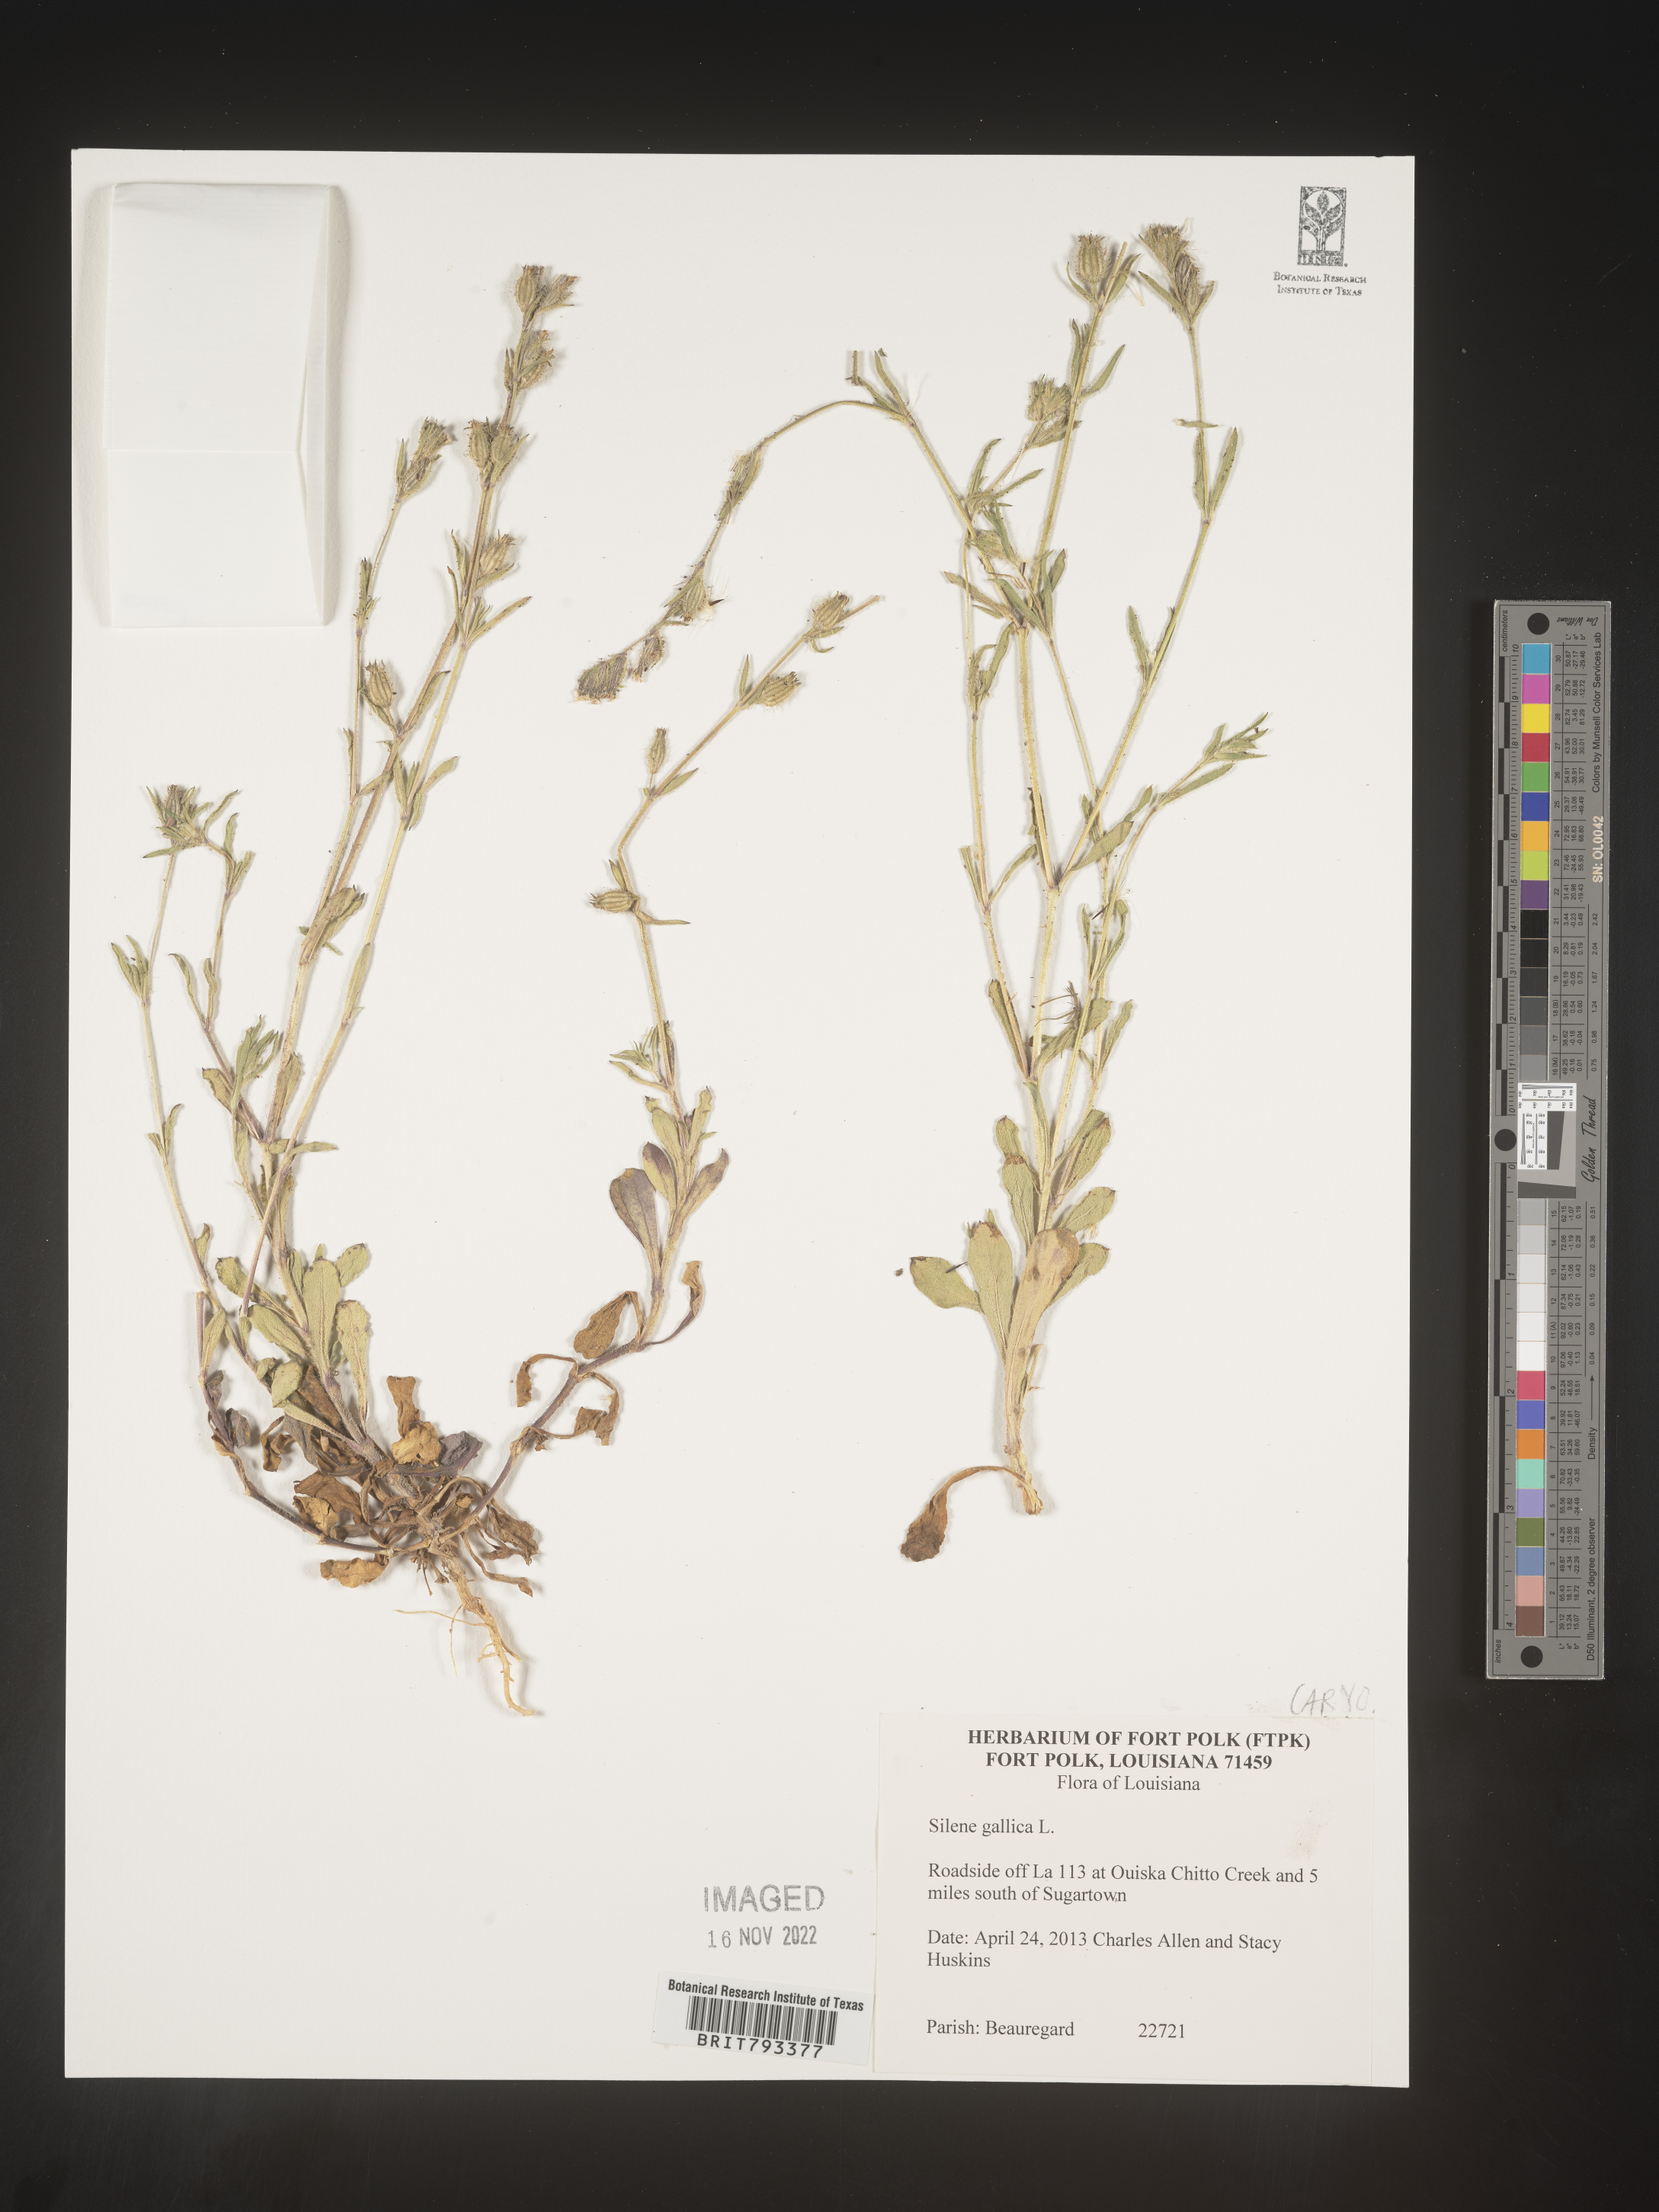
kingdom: Plantae
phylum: Tracheophyta
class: Magnoliopsida
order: Caryophyllales
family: Caryophyllaceae
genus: Silene
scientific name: Silene gallica
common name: Small-flowered catchfly
